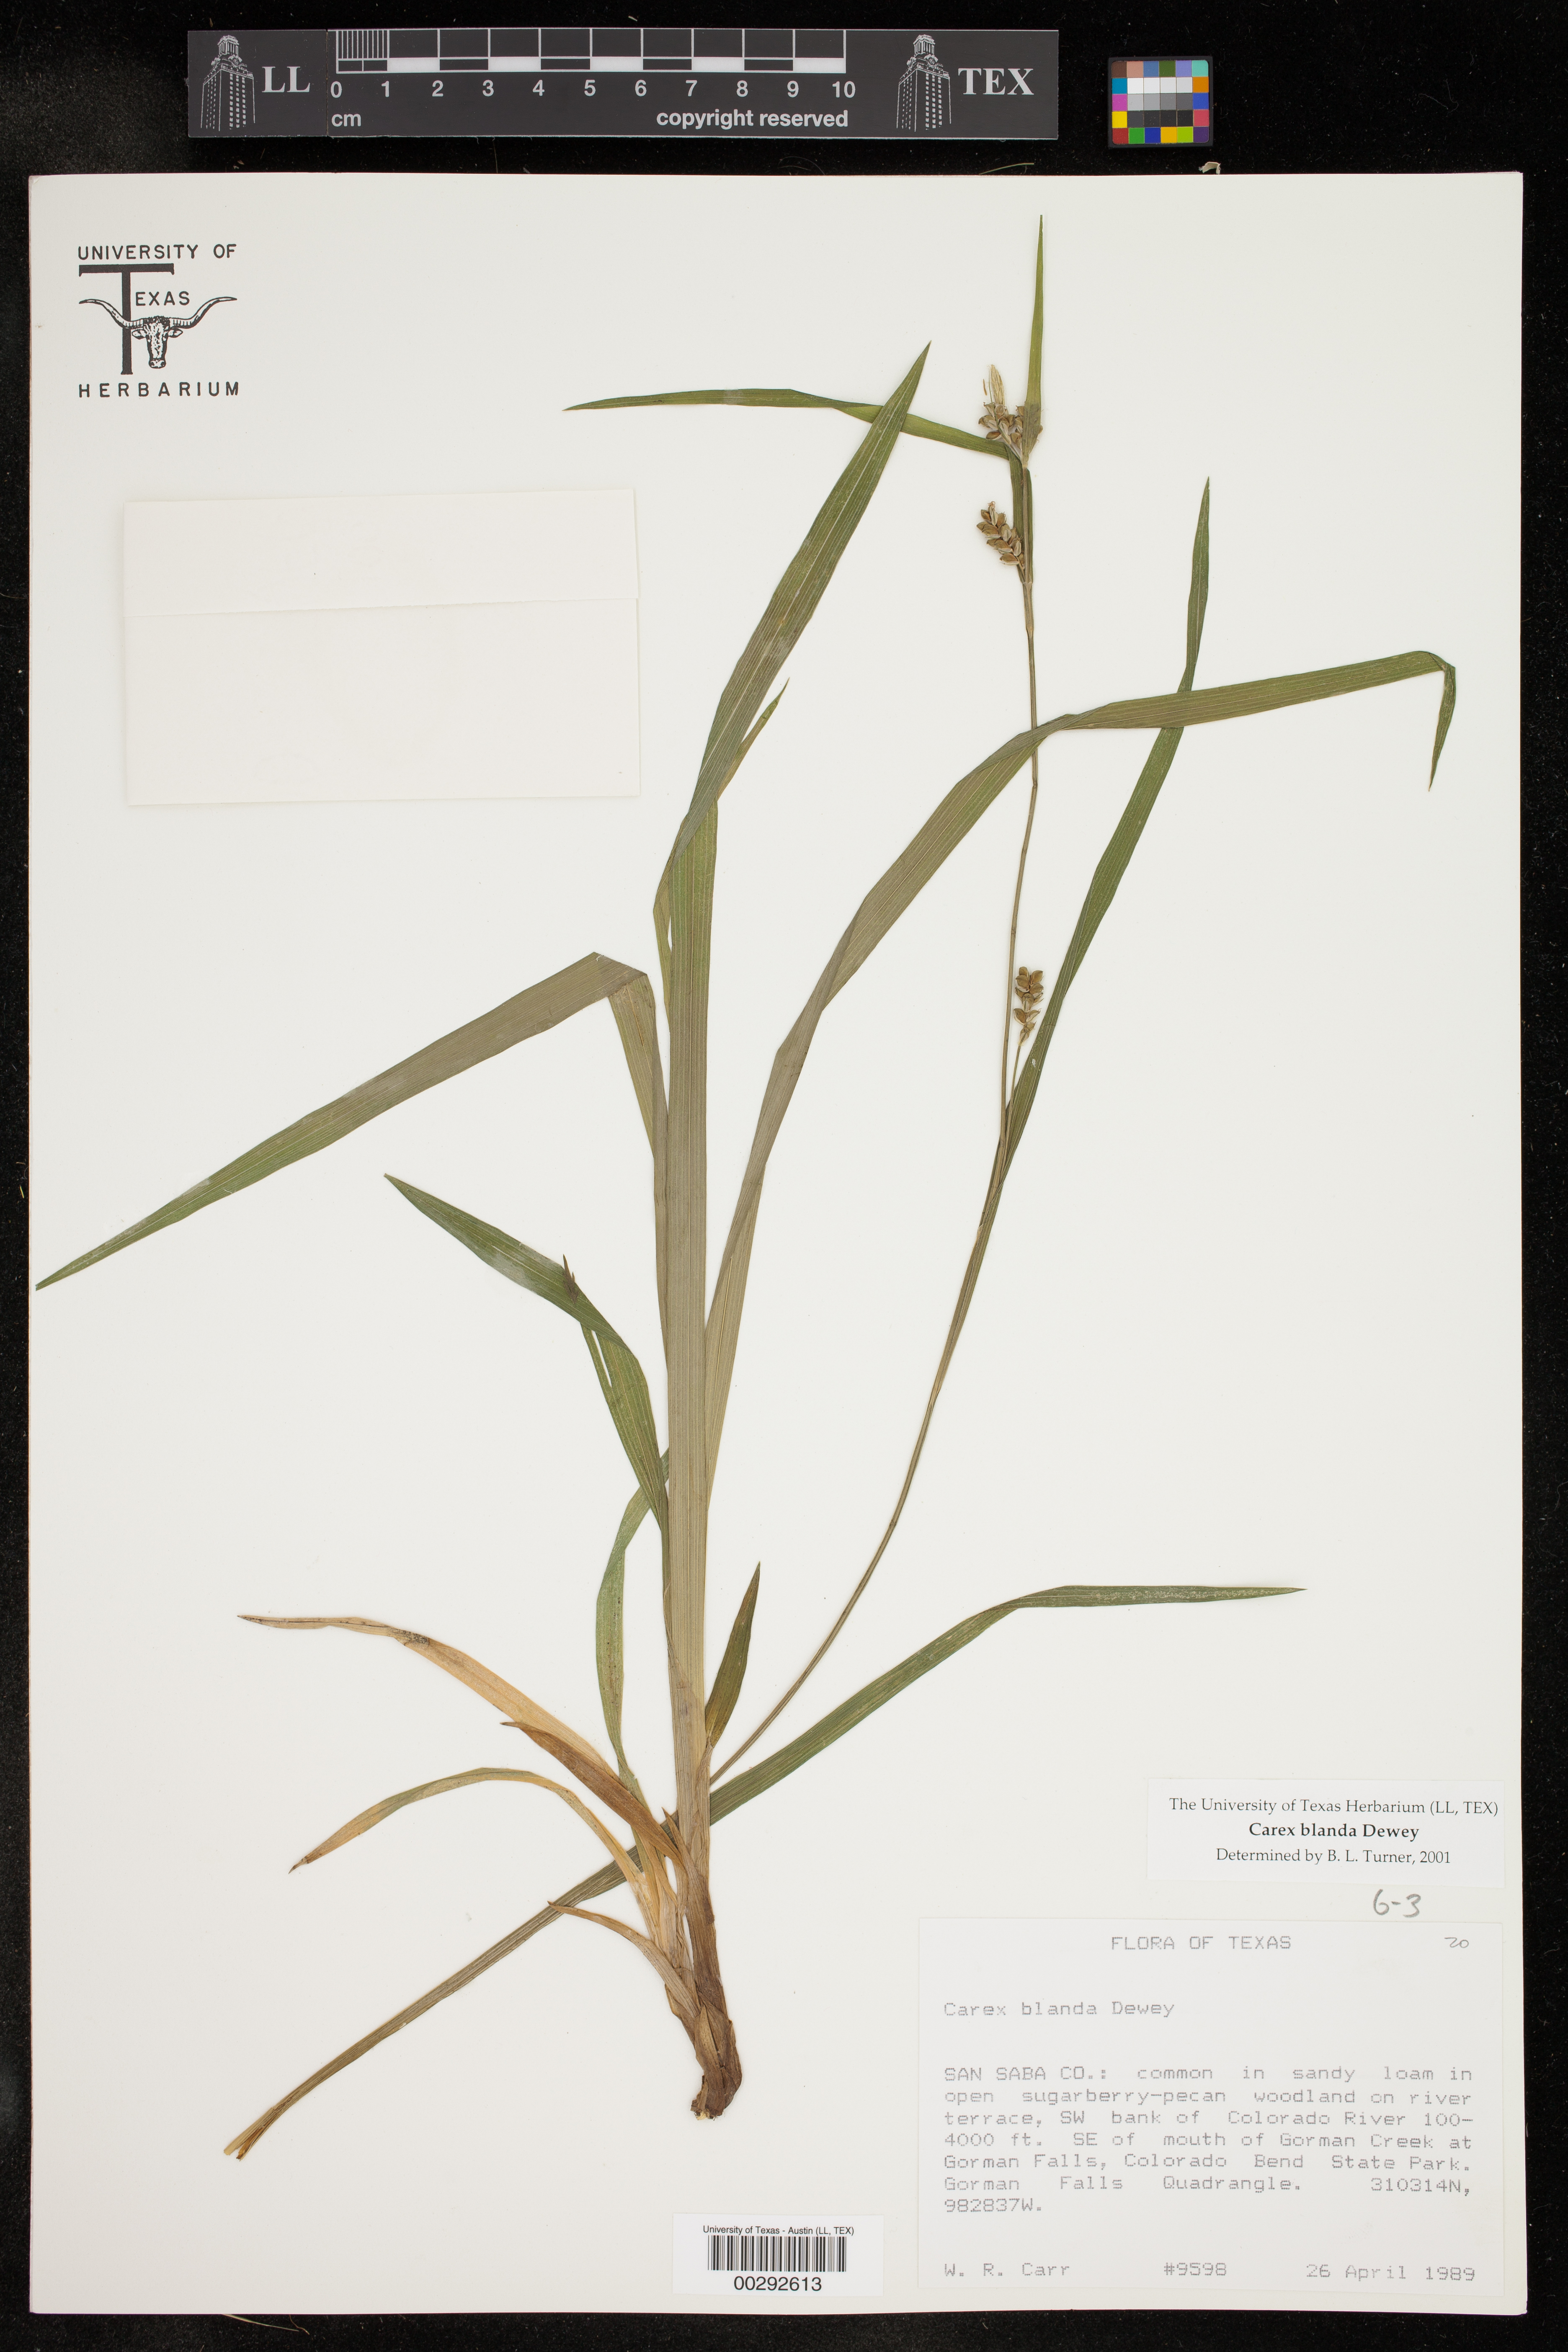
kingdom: Plantae
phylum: Tracheophyta
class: Liliopsida
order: Poales
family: Cyperaceae
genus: Carex
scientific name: Carex blanda
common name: Bland sedge
